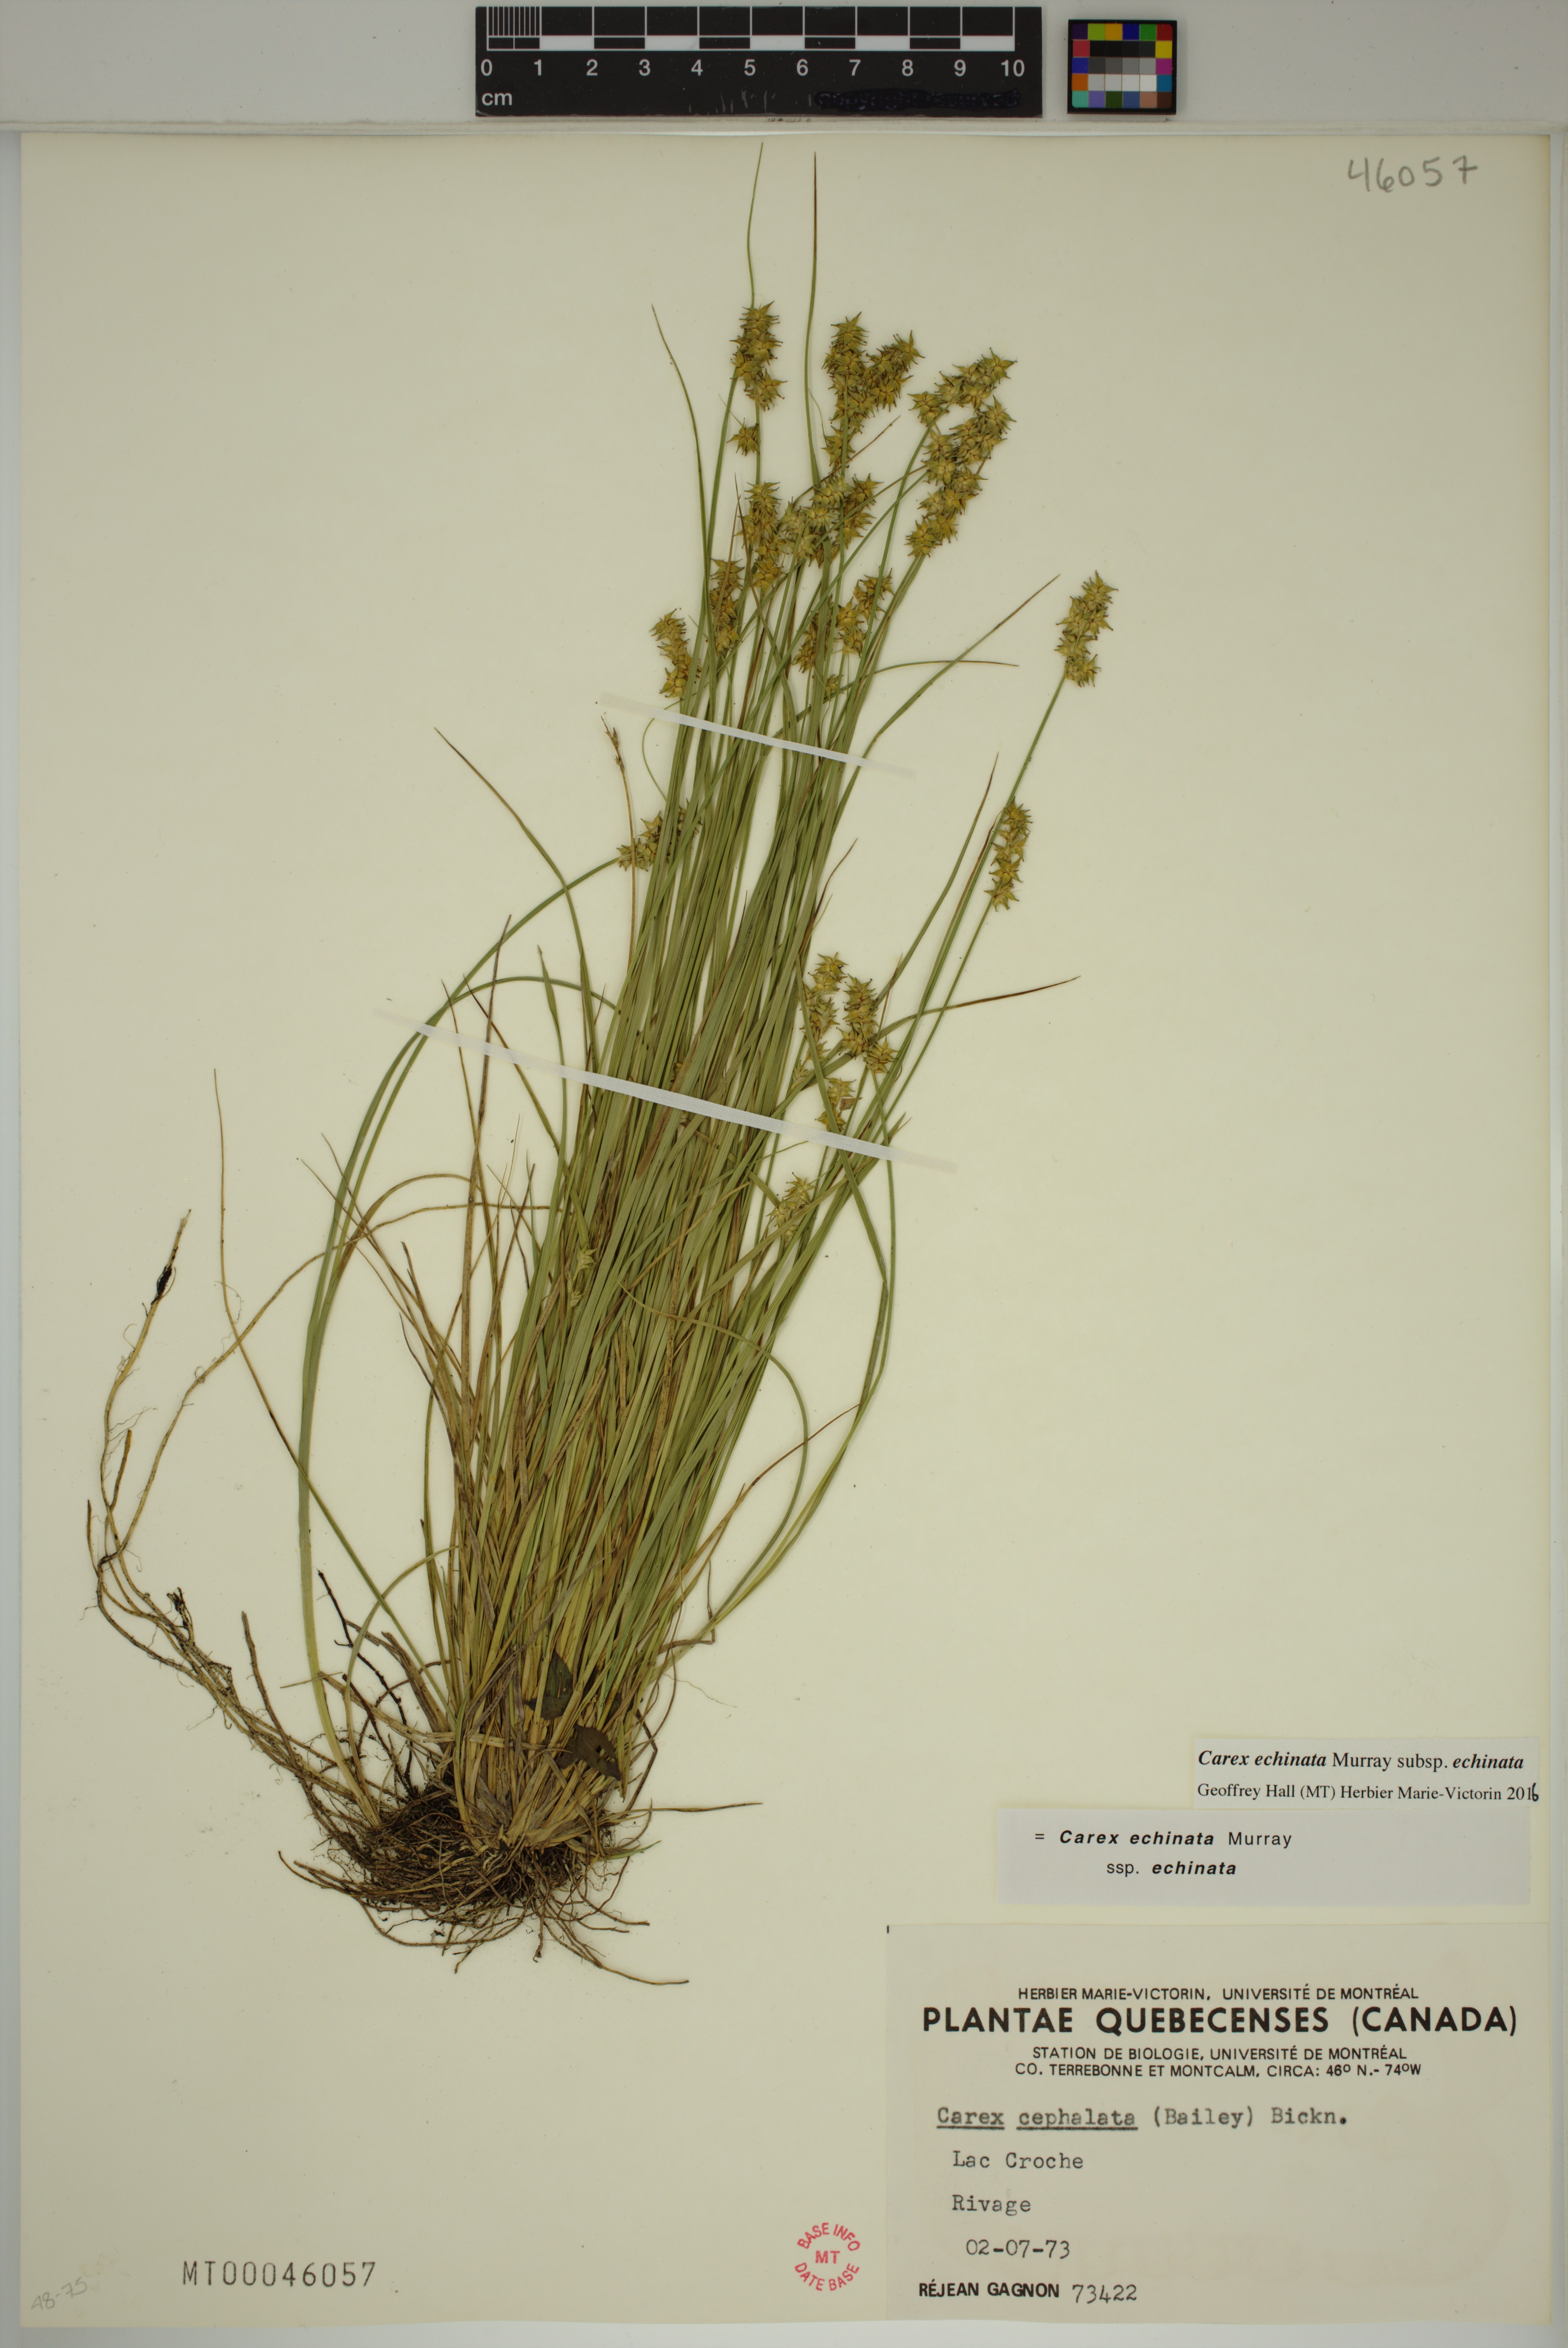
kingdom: Plantae
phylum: Tracheophyta
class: Liliopsida
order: Poales
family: Cyperaceae
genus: Carex
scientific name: Carex echinata
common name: Star sedge
